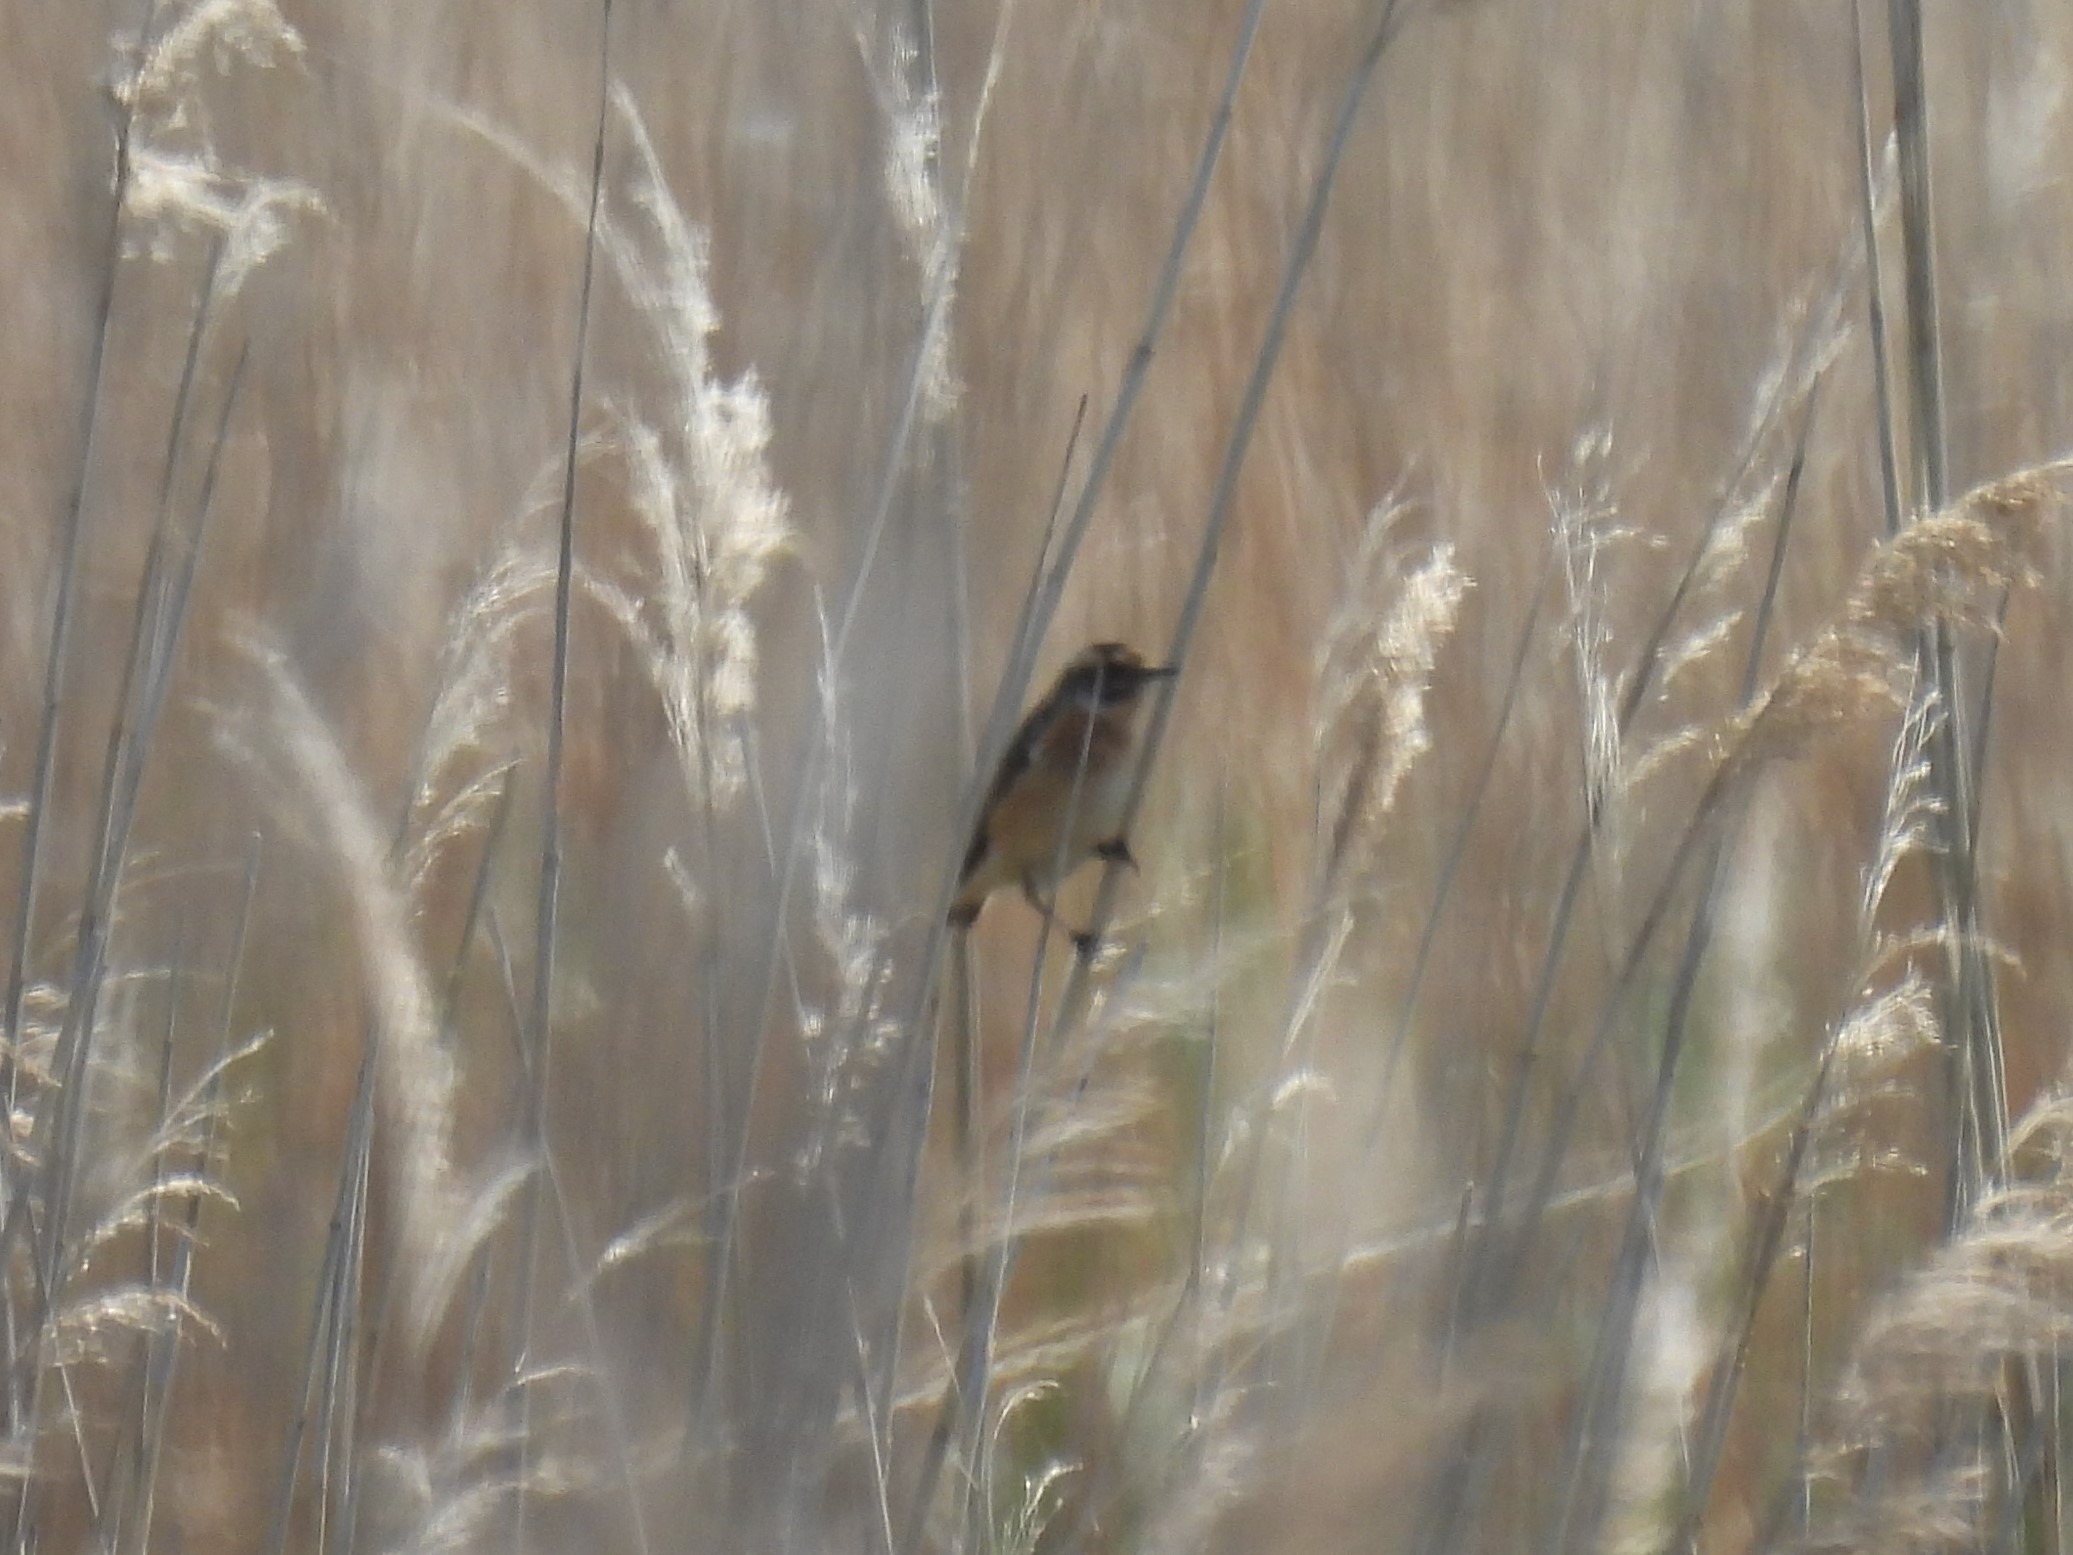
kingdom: Animalia
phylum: Chordata
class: Aves
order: Passeriformes
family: Muscicapidae
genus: Saxicola
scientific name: Saxicola rubetra
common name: Bynkefugl
